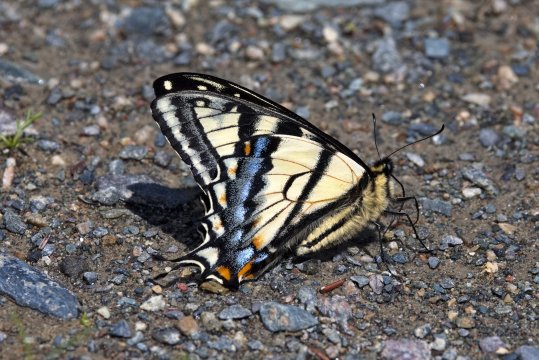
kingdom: Animalia
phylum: Arthropoda
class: Insecta
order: Lepidoptera
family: Papilionidae
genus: Pterourus
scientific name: Pterourus canadensis
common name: Canadian Tiger Swallowtail
